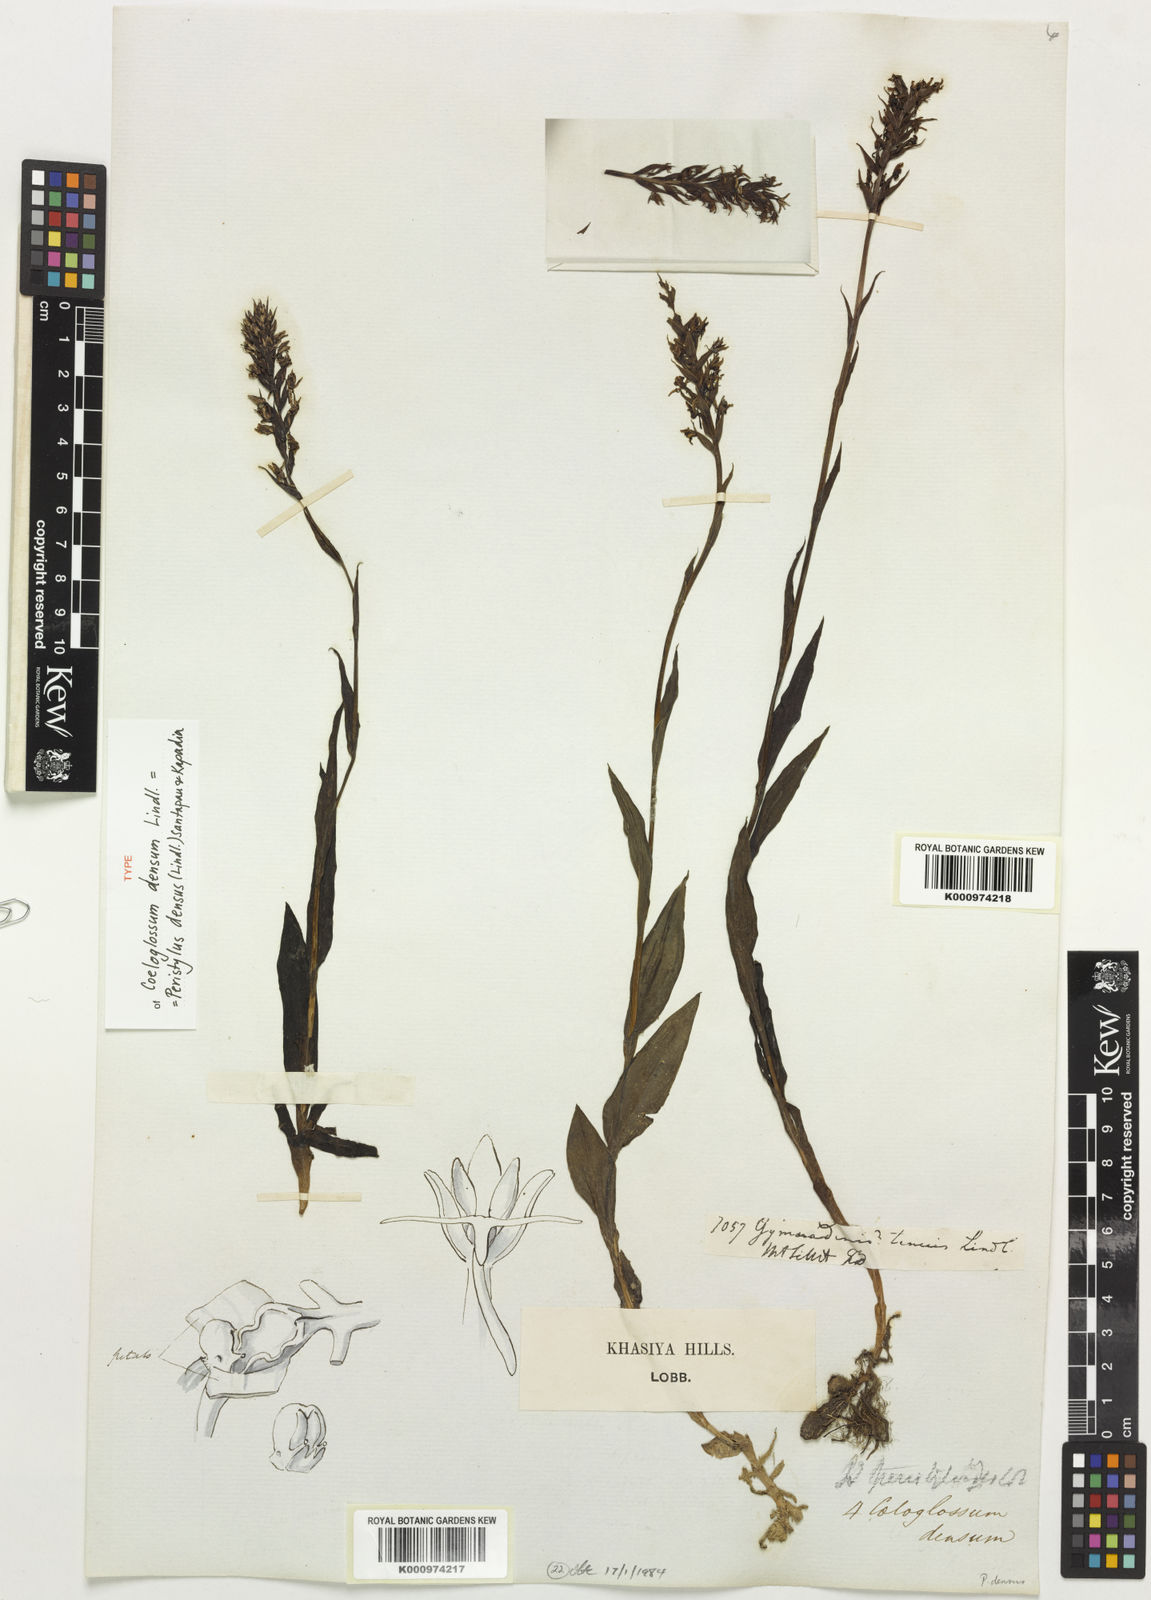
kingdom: Plantae
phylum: Tracheophyta
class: Liliopsida
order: Asparagales
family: Orchidaceae
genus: Peristylus
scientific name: Peristylus densus
